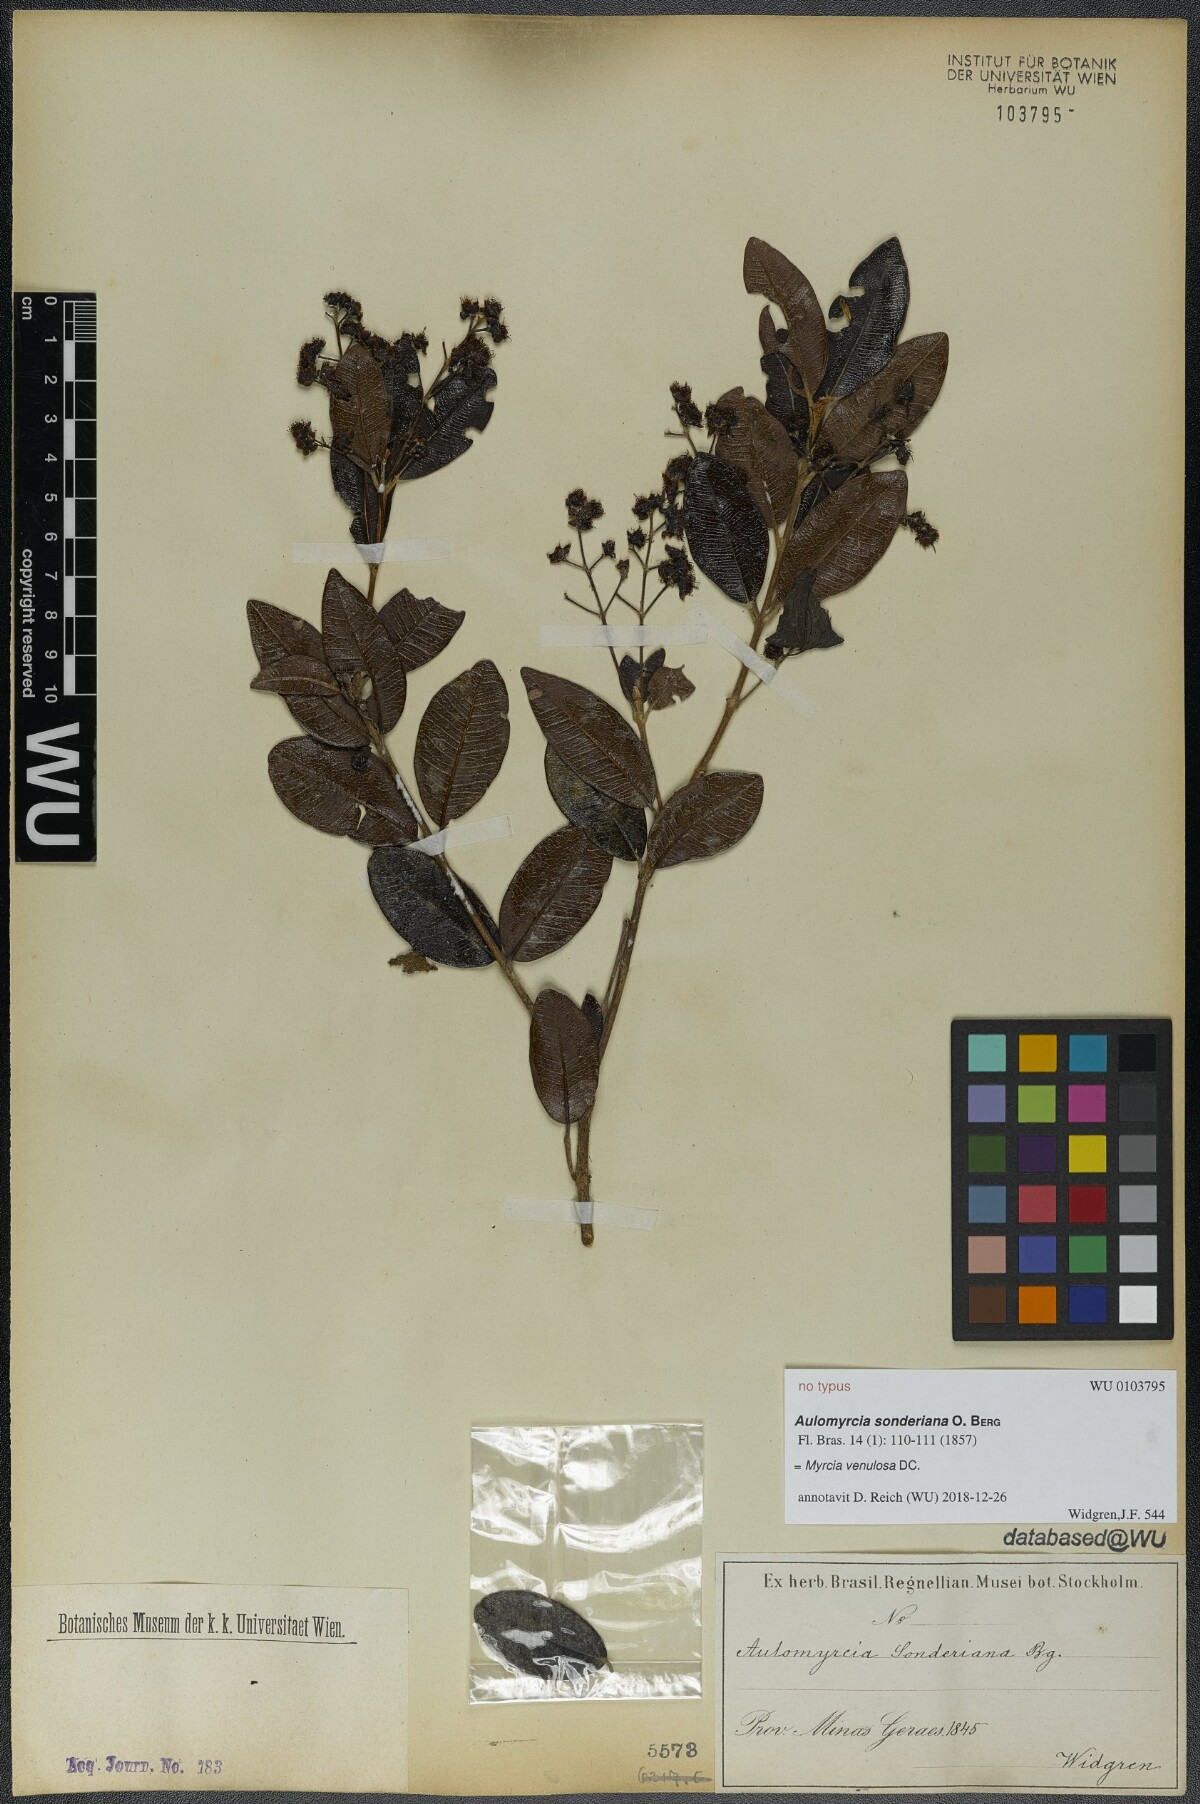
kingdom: Plantae
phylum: Tracheophyta
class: Magnoliopsida
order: Myrtales
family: Myrtaceae
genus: Myrcia
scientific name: Myrcia venulosa
